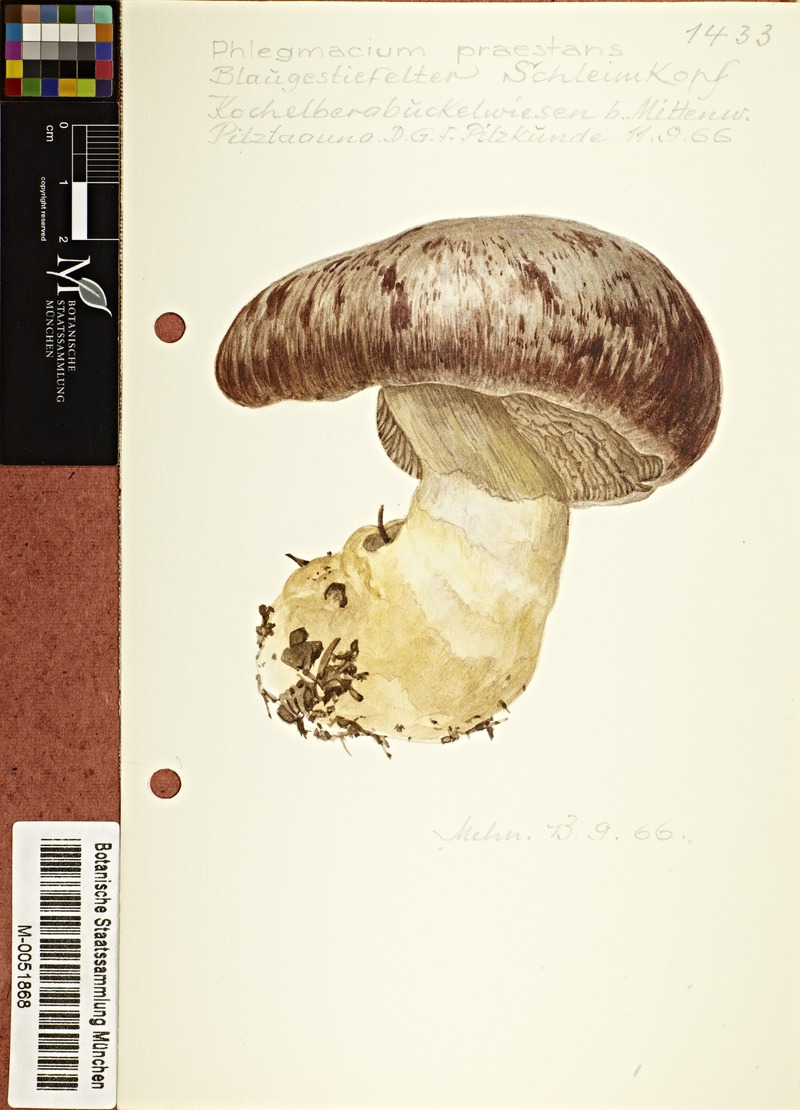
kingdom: Fungi
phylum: Basidiomycota
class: Agaricomycetes
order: Agaricales
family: Cortinariaceae
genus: Cortinarius
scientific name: Cortinarius praestans
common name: Goliath webcap
